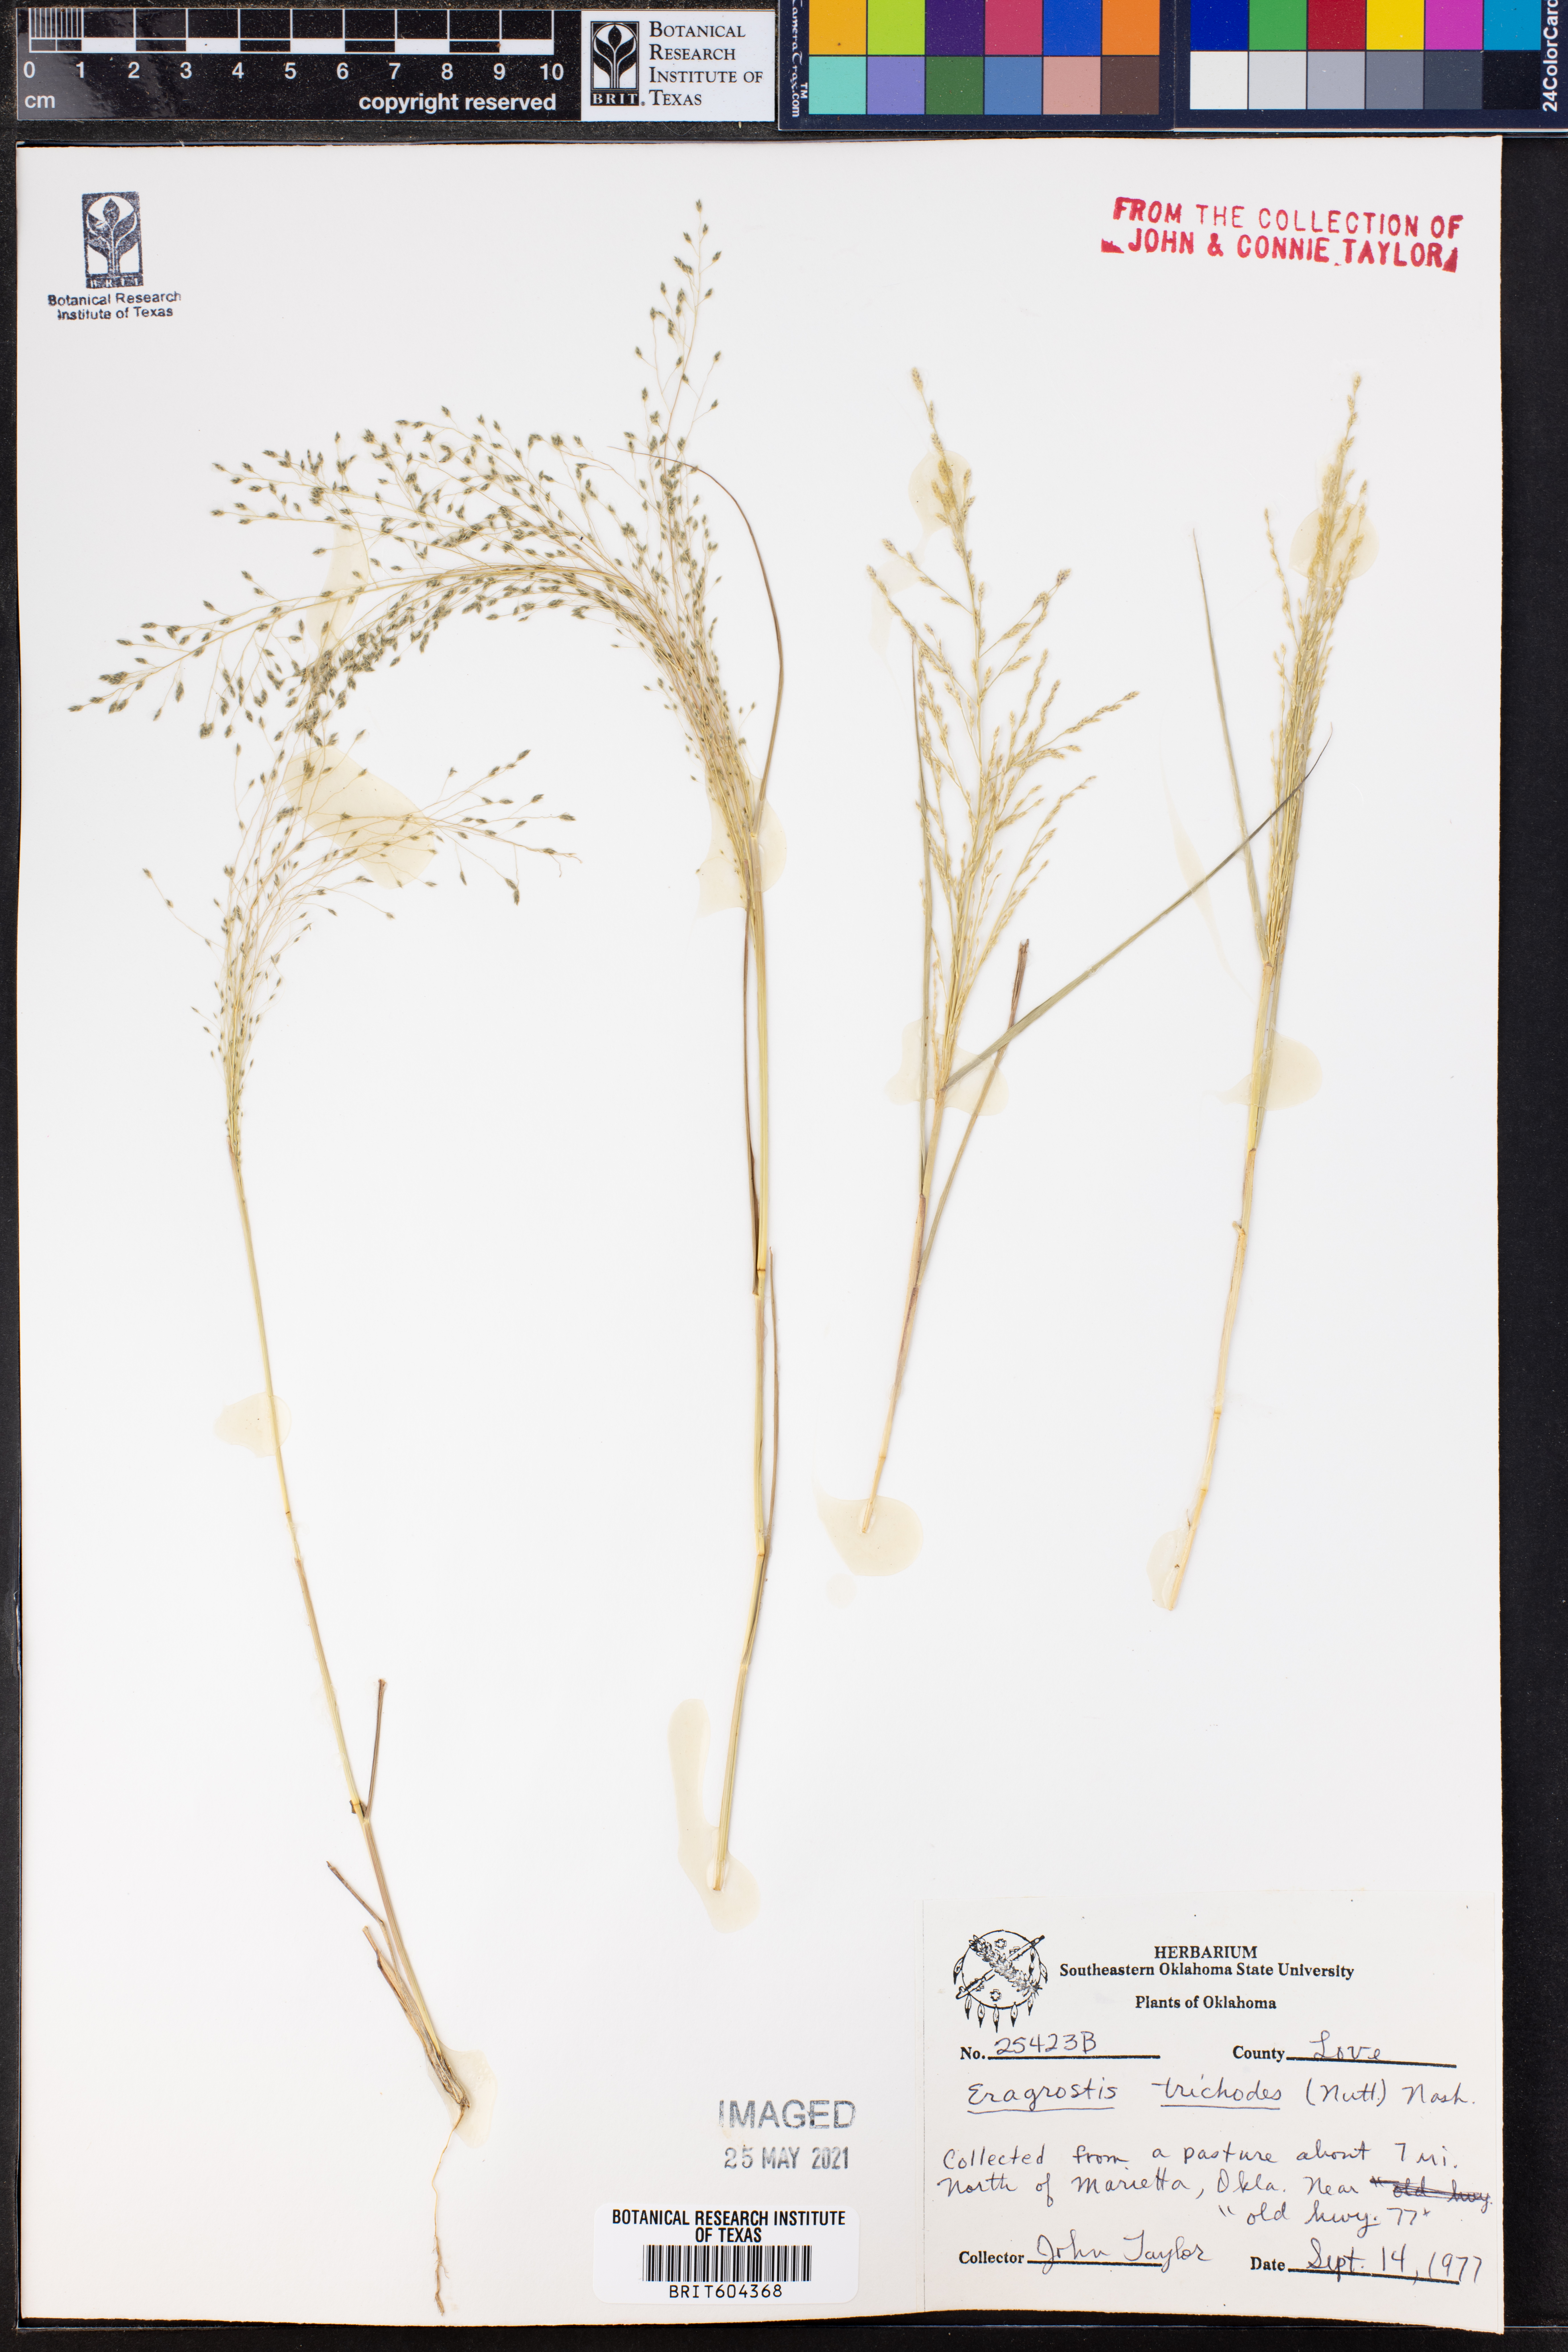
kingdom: Plantae
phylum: Tracheophyta
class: Liliopsida
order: Poales
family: Poaceae
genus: Eragrostis
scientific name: Eragrostis trichodes
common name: Sand love grass
